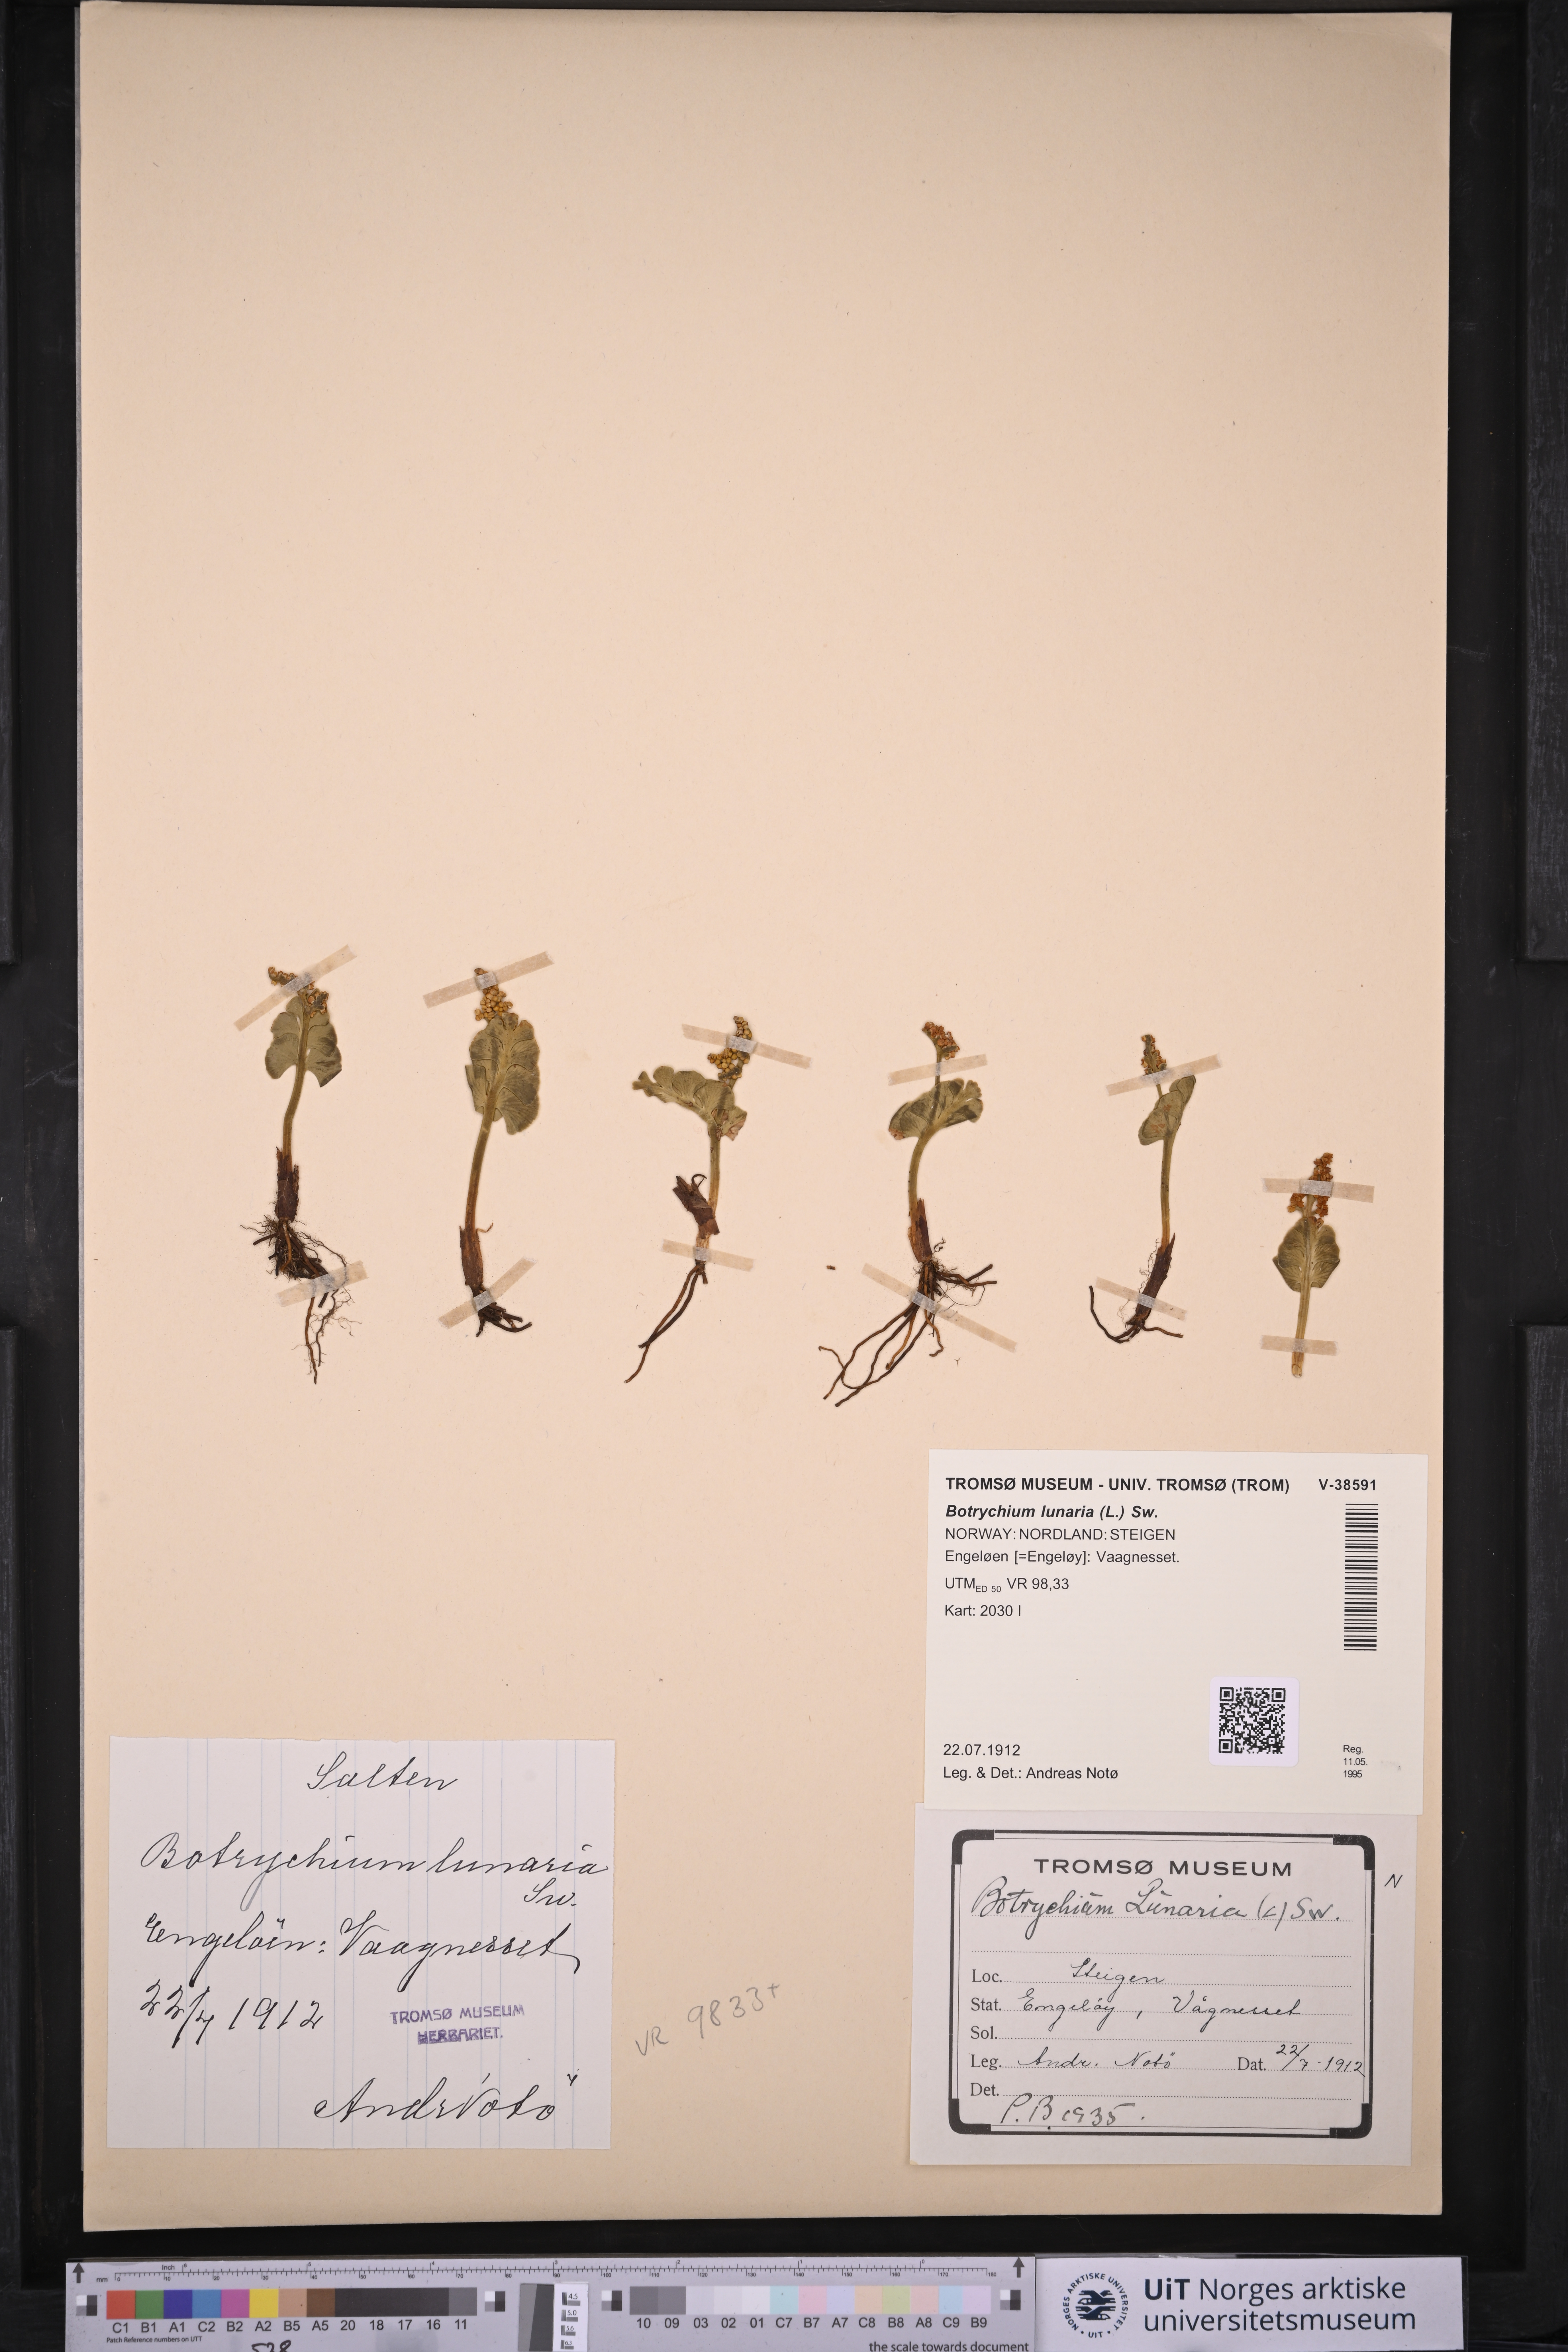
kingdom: Plantae
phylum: Tracheophyta
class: Polypodiopsida
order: Ophioglossales
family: Ophioglossaceae
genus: Botrychium
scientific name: Botrychium lunaria
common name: Moonwort
